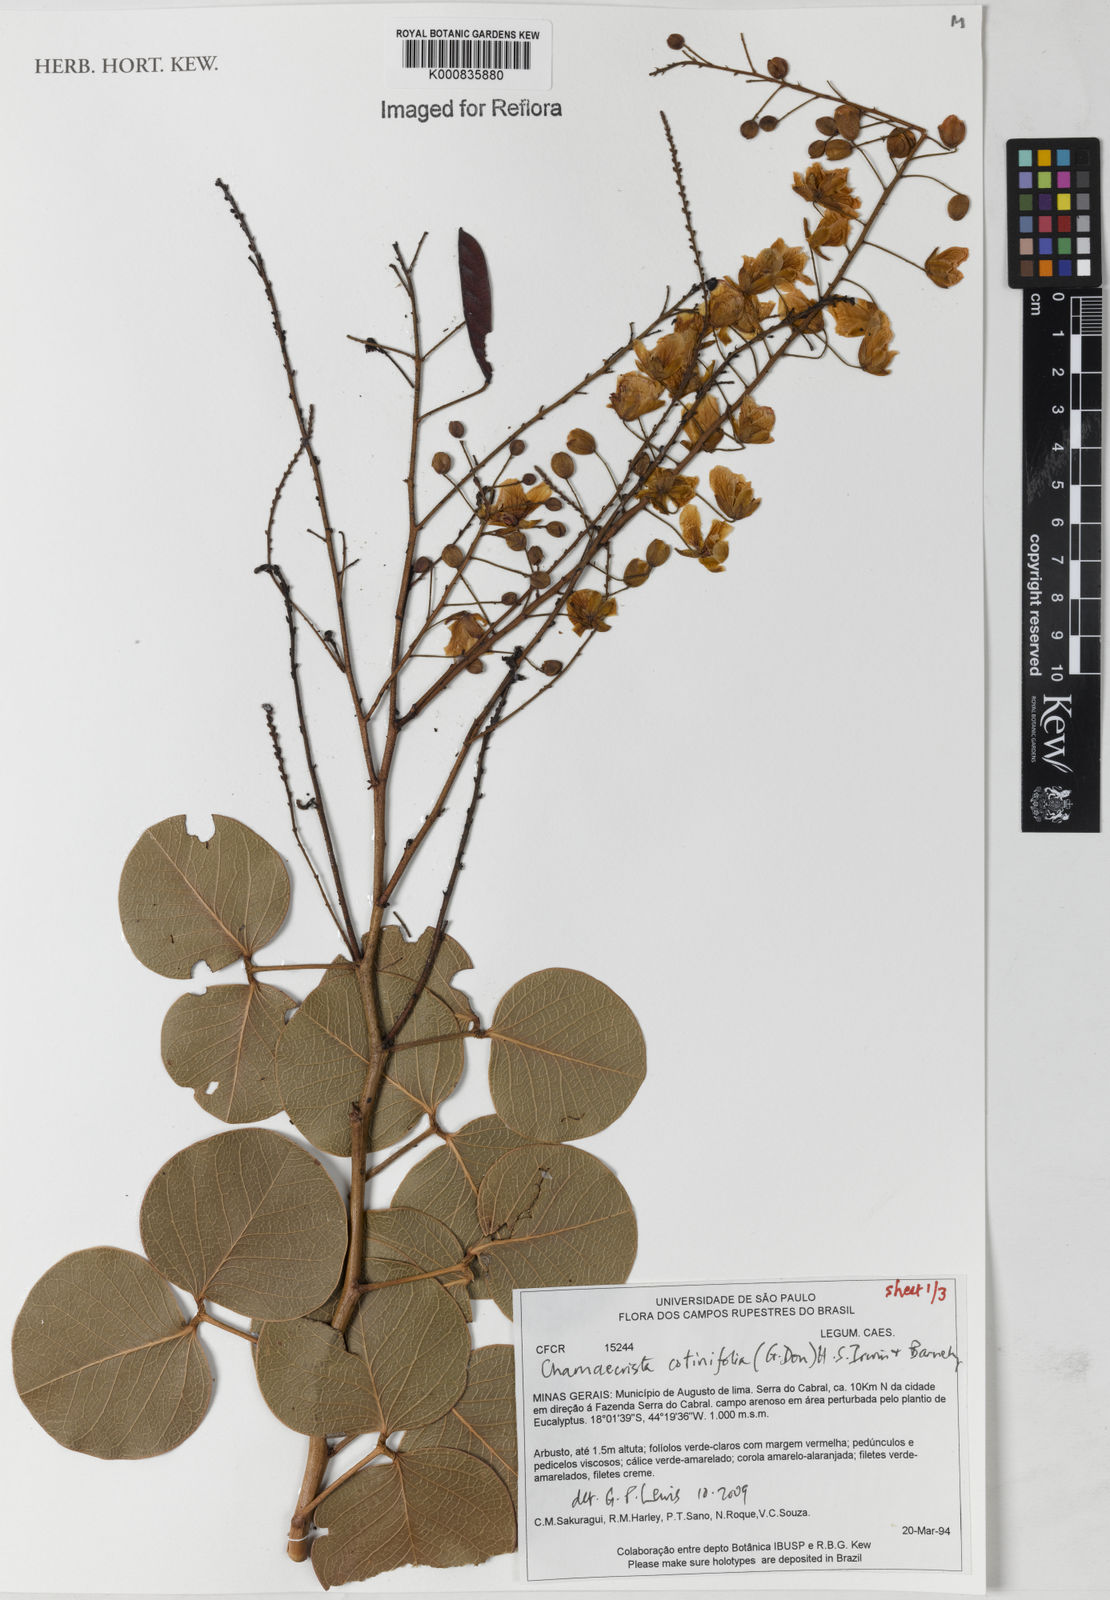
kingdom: Plantae
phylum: Tracheophyta
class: Magnoliopsida
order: Fabales
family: Fabaceae
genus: Chamaecrista
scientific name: Chamaecrista cotinifolia
